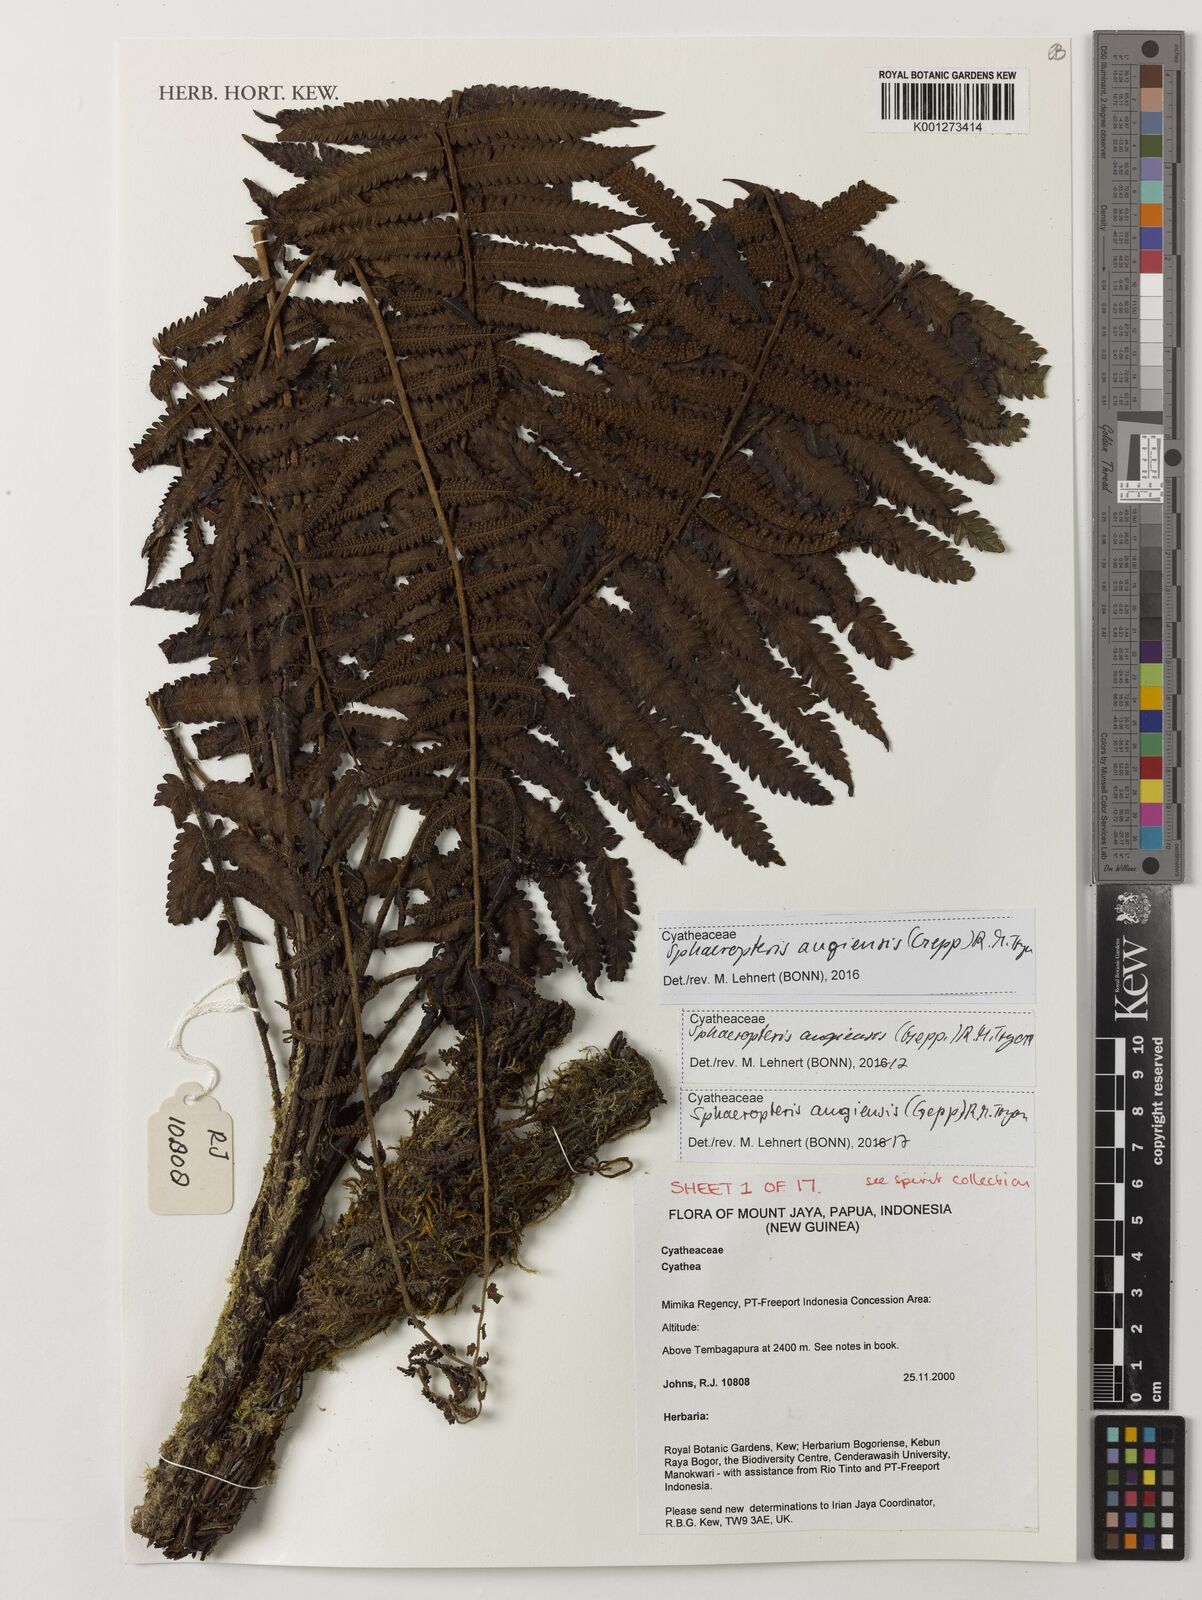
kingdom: Plantae
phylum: Tracheophyta
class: Polypodiopsida
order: Cyatheales
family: Cyatheaceae
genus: Sphaeropteris
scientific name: Sphaeropteris
